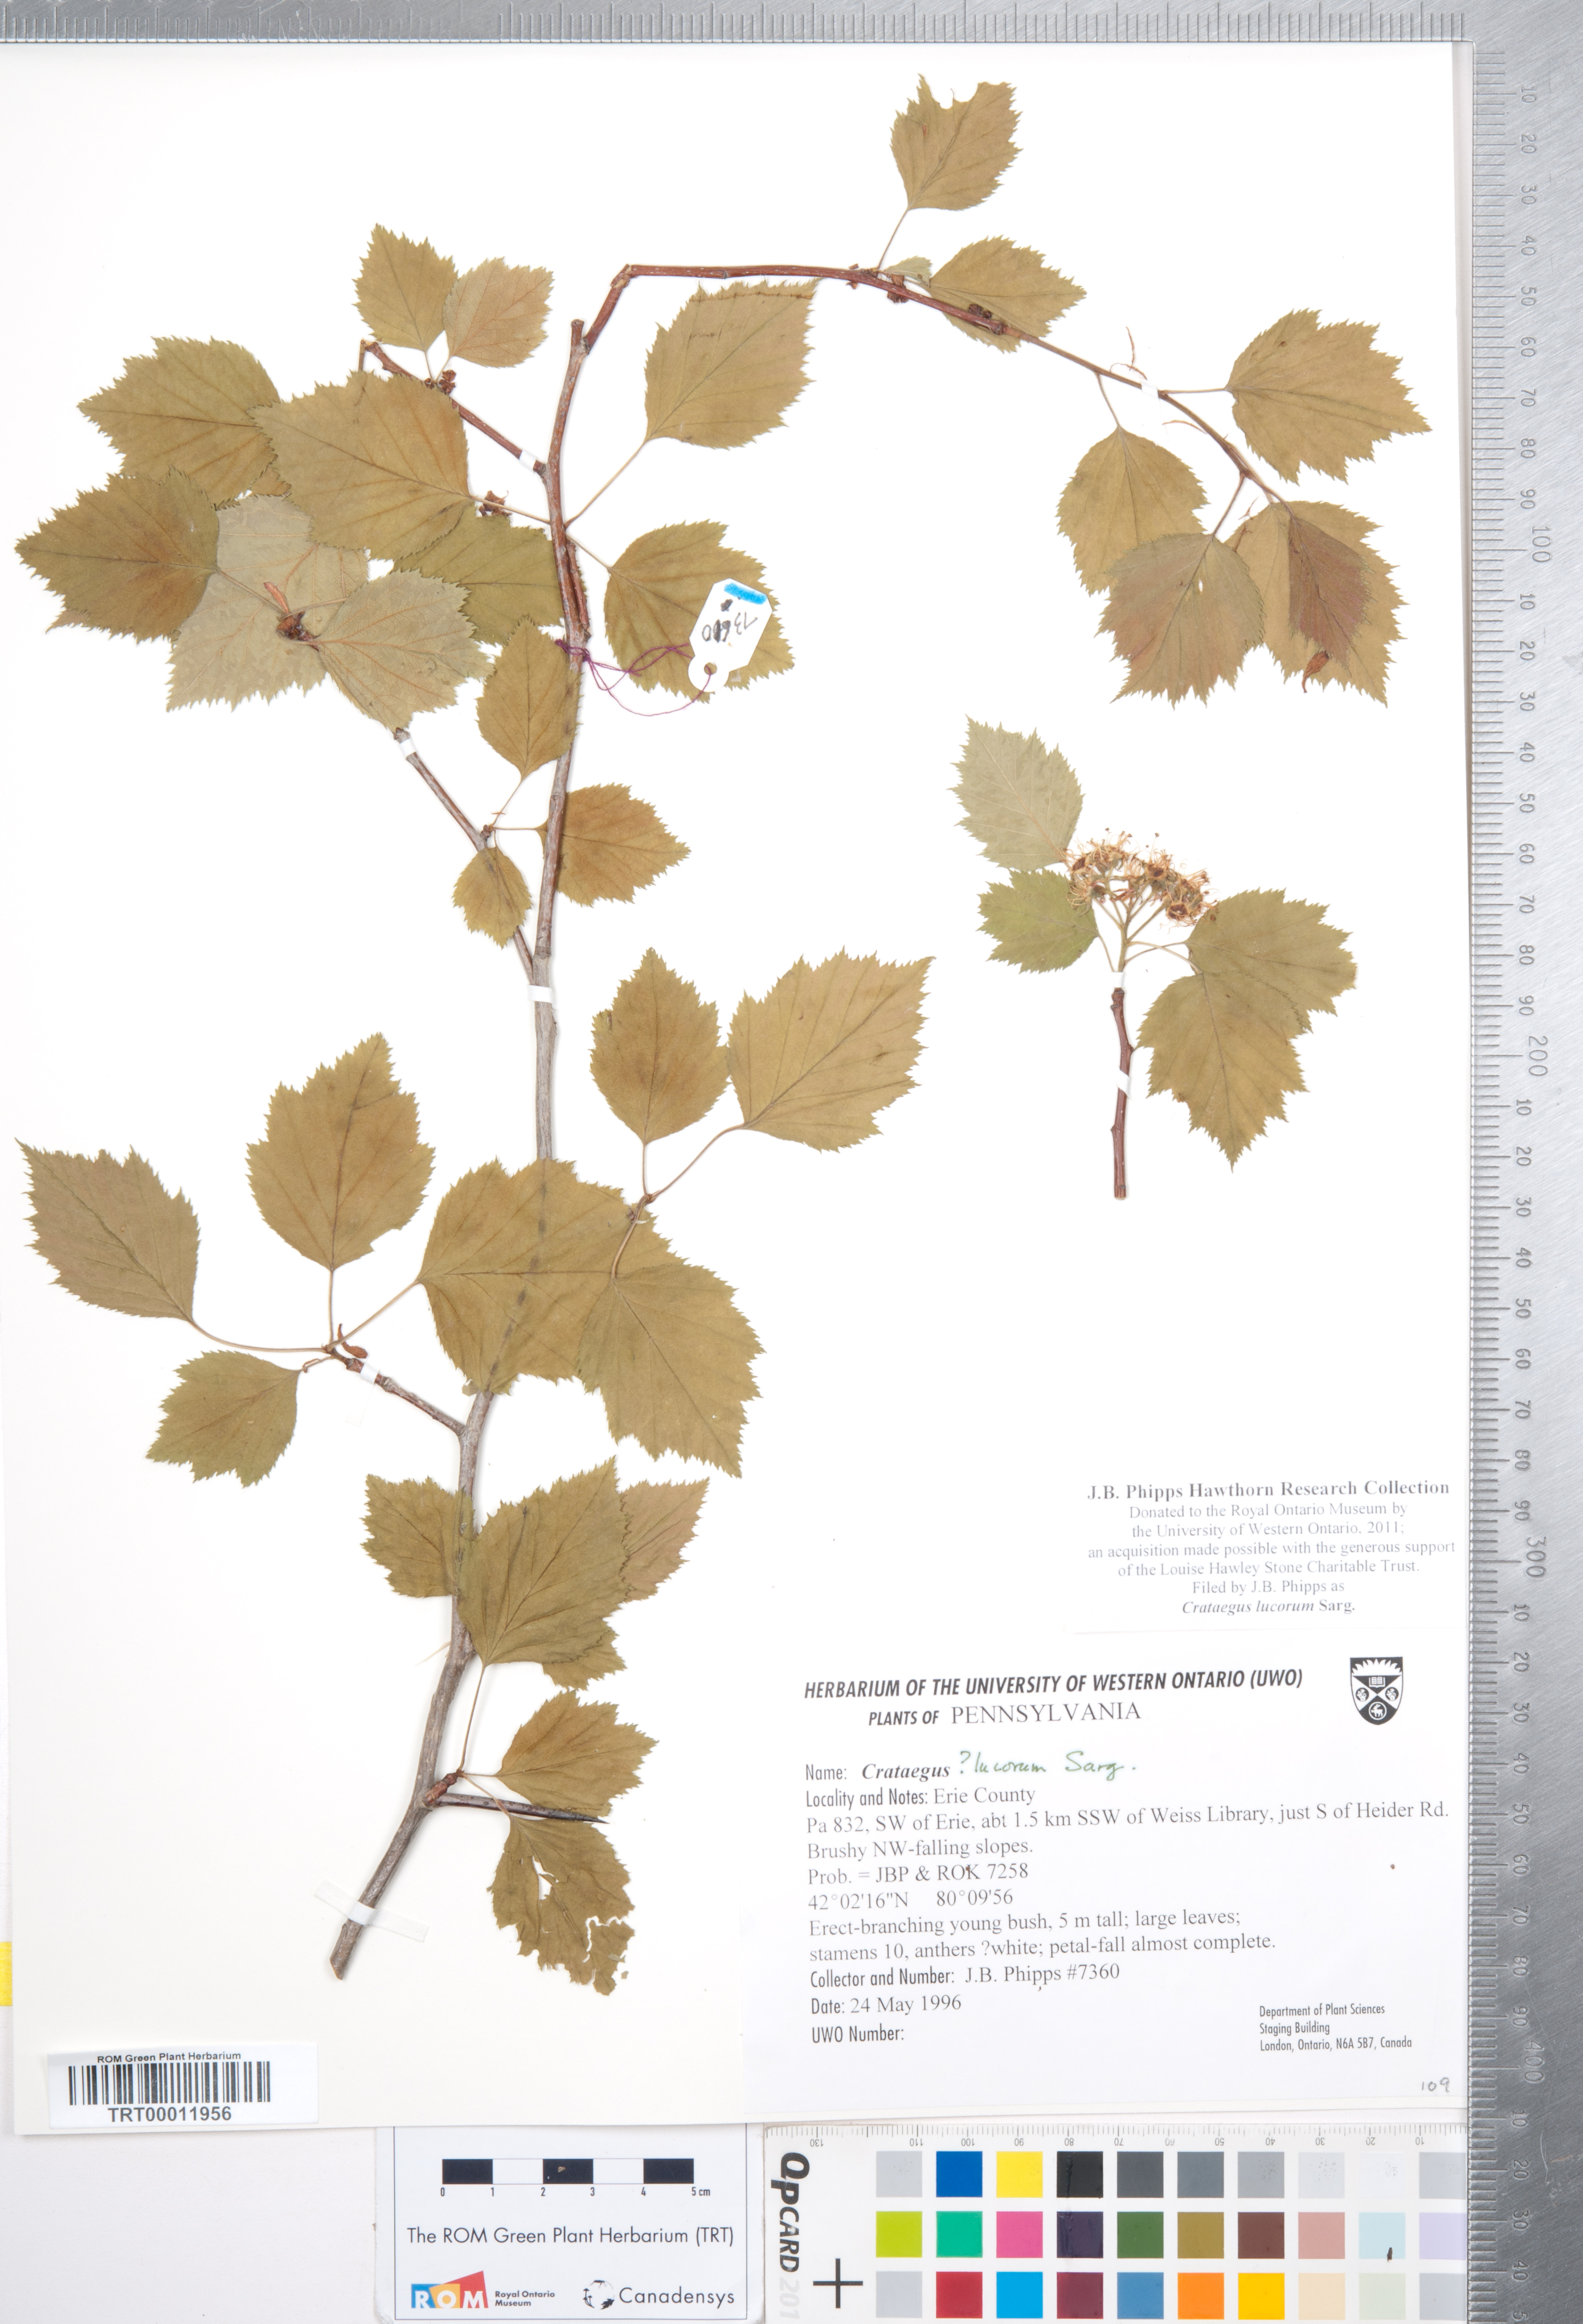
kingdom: Plantae
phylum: Tracheophyta
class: Magnoliopsida
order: Rosales
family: Rosaceae
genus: Crataegus
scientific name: Crataegus lucorum
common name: Grove hawthorn
